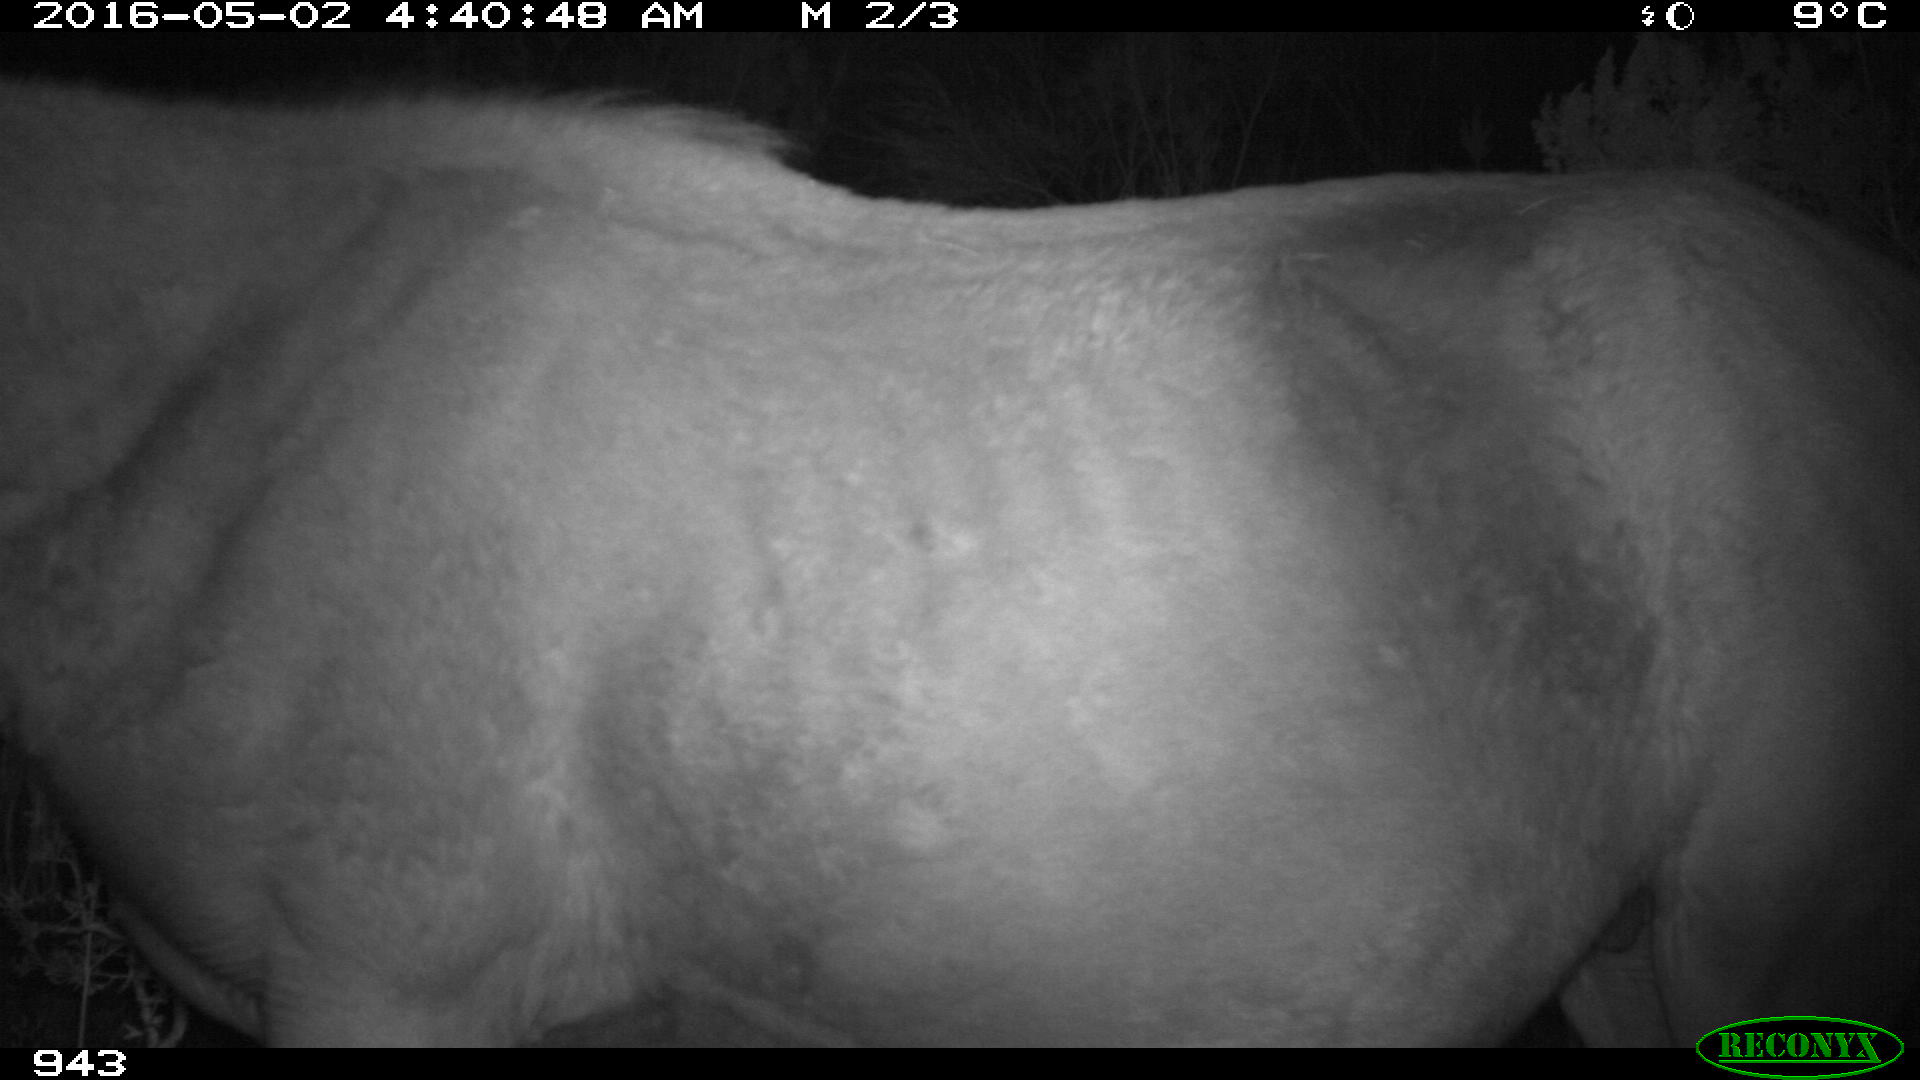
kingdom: Animalia
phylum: Chordata
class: Mammalia
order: Perissodactyla
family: Equidae
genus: Equus
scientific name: Equus caballus
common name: Horse
